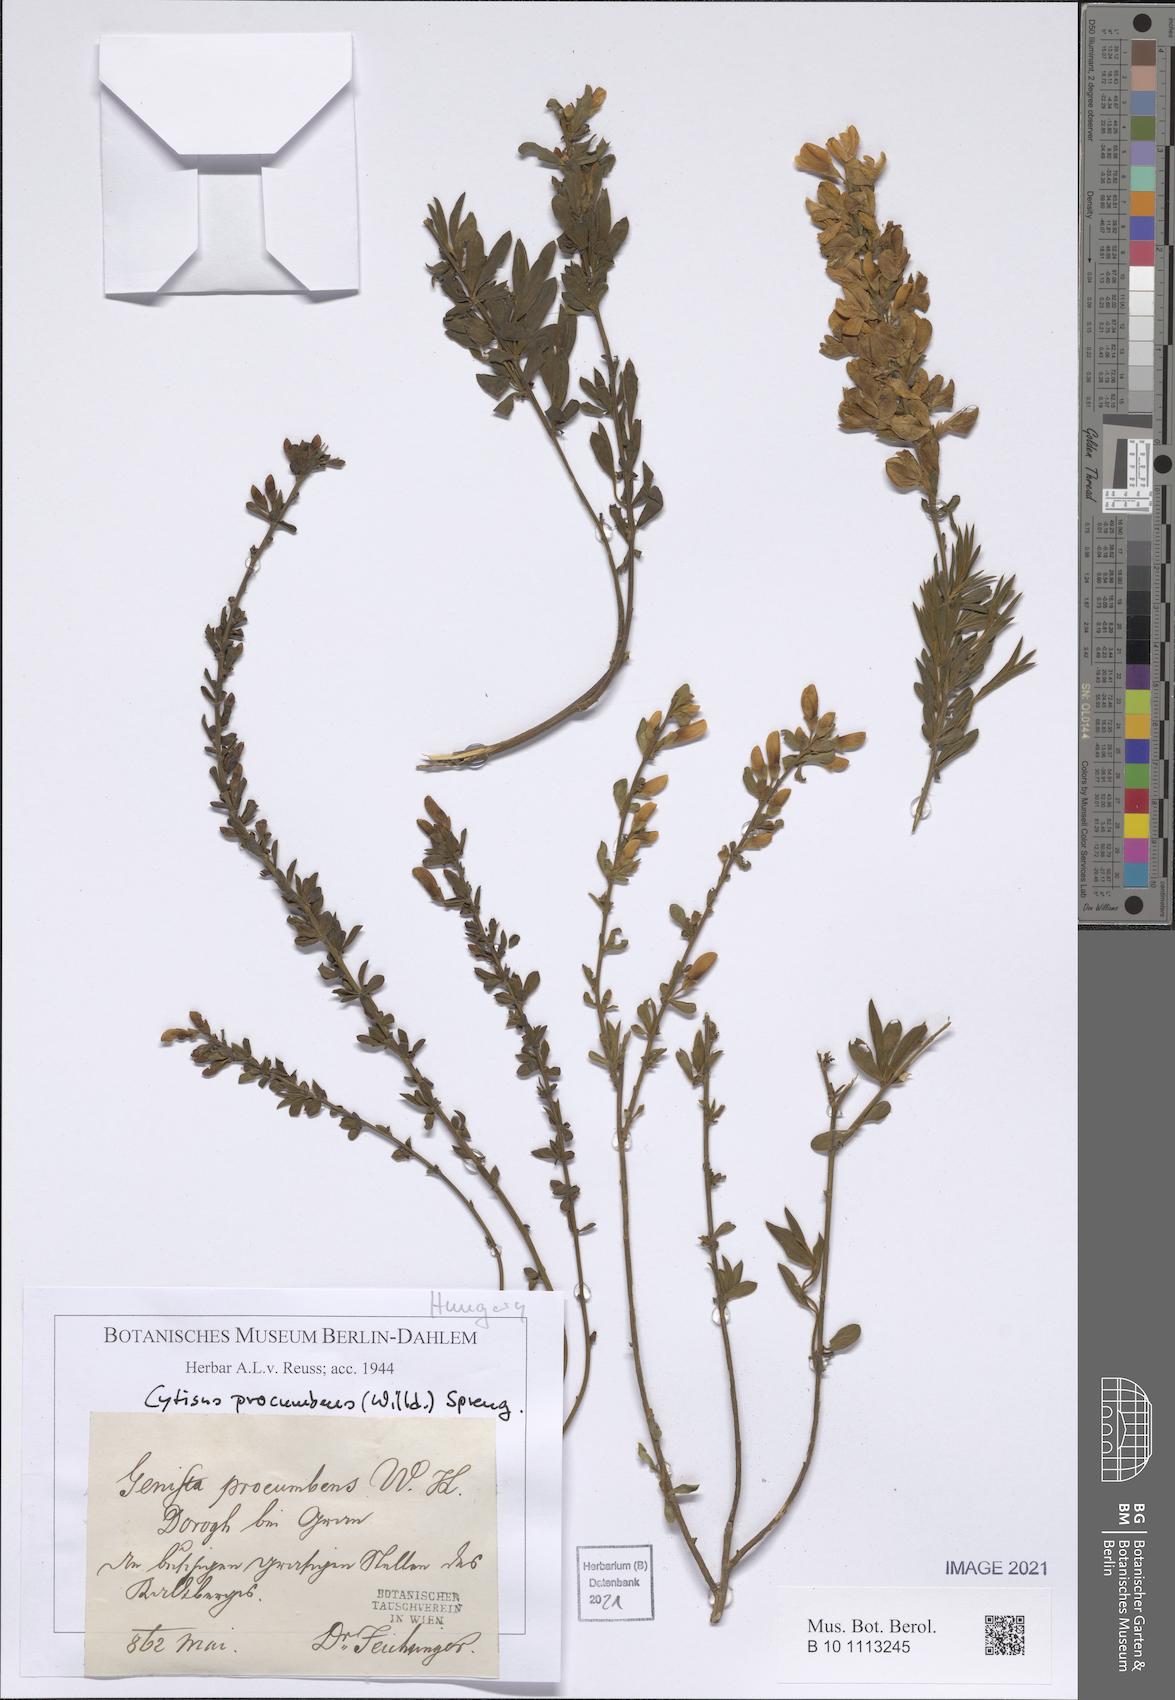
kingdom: Plantae
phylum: Tracheophyta
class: Magnoliopsida
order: Fabales
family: Fabaceae
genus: Cytisus
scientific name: Cytisus procumbens
